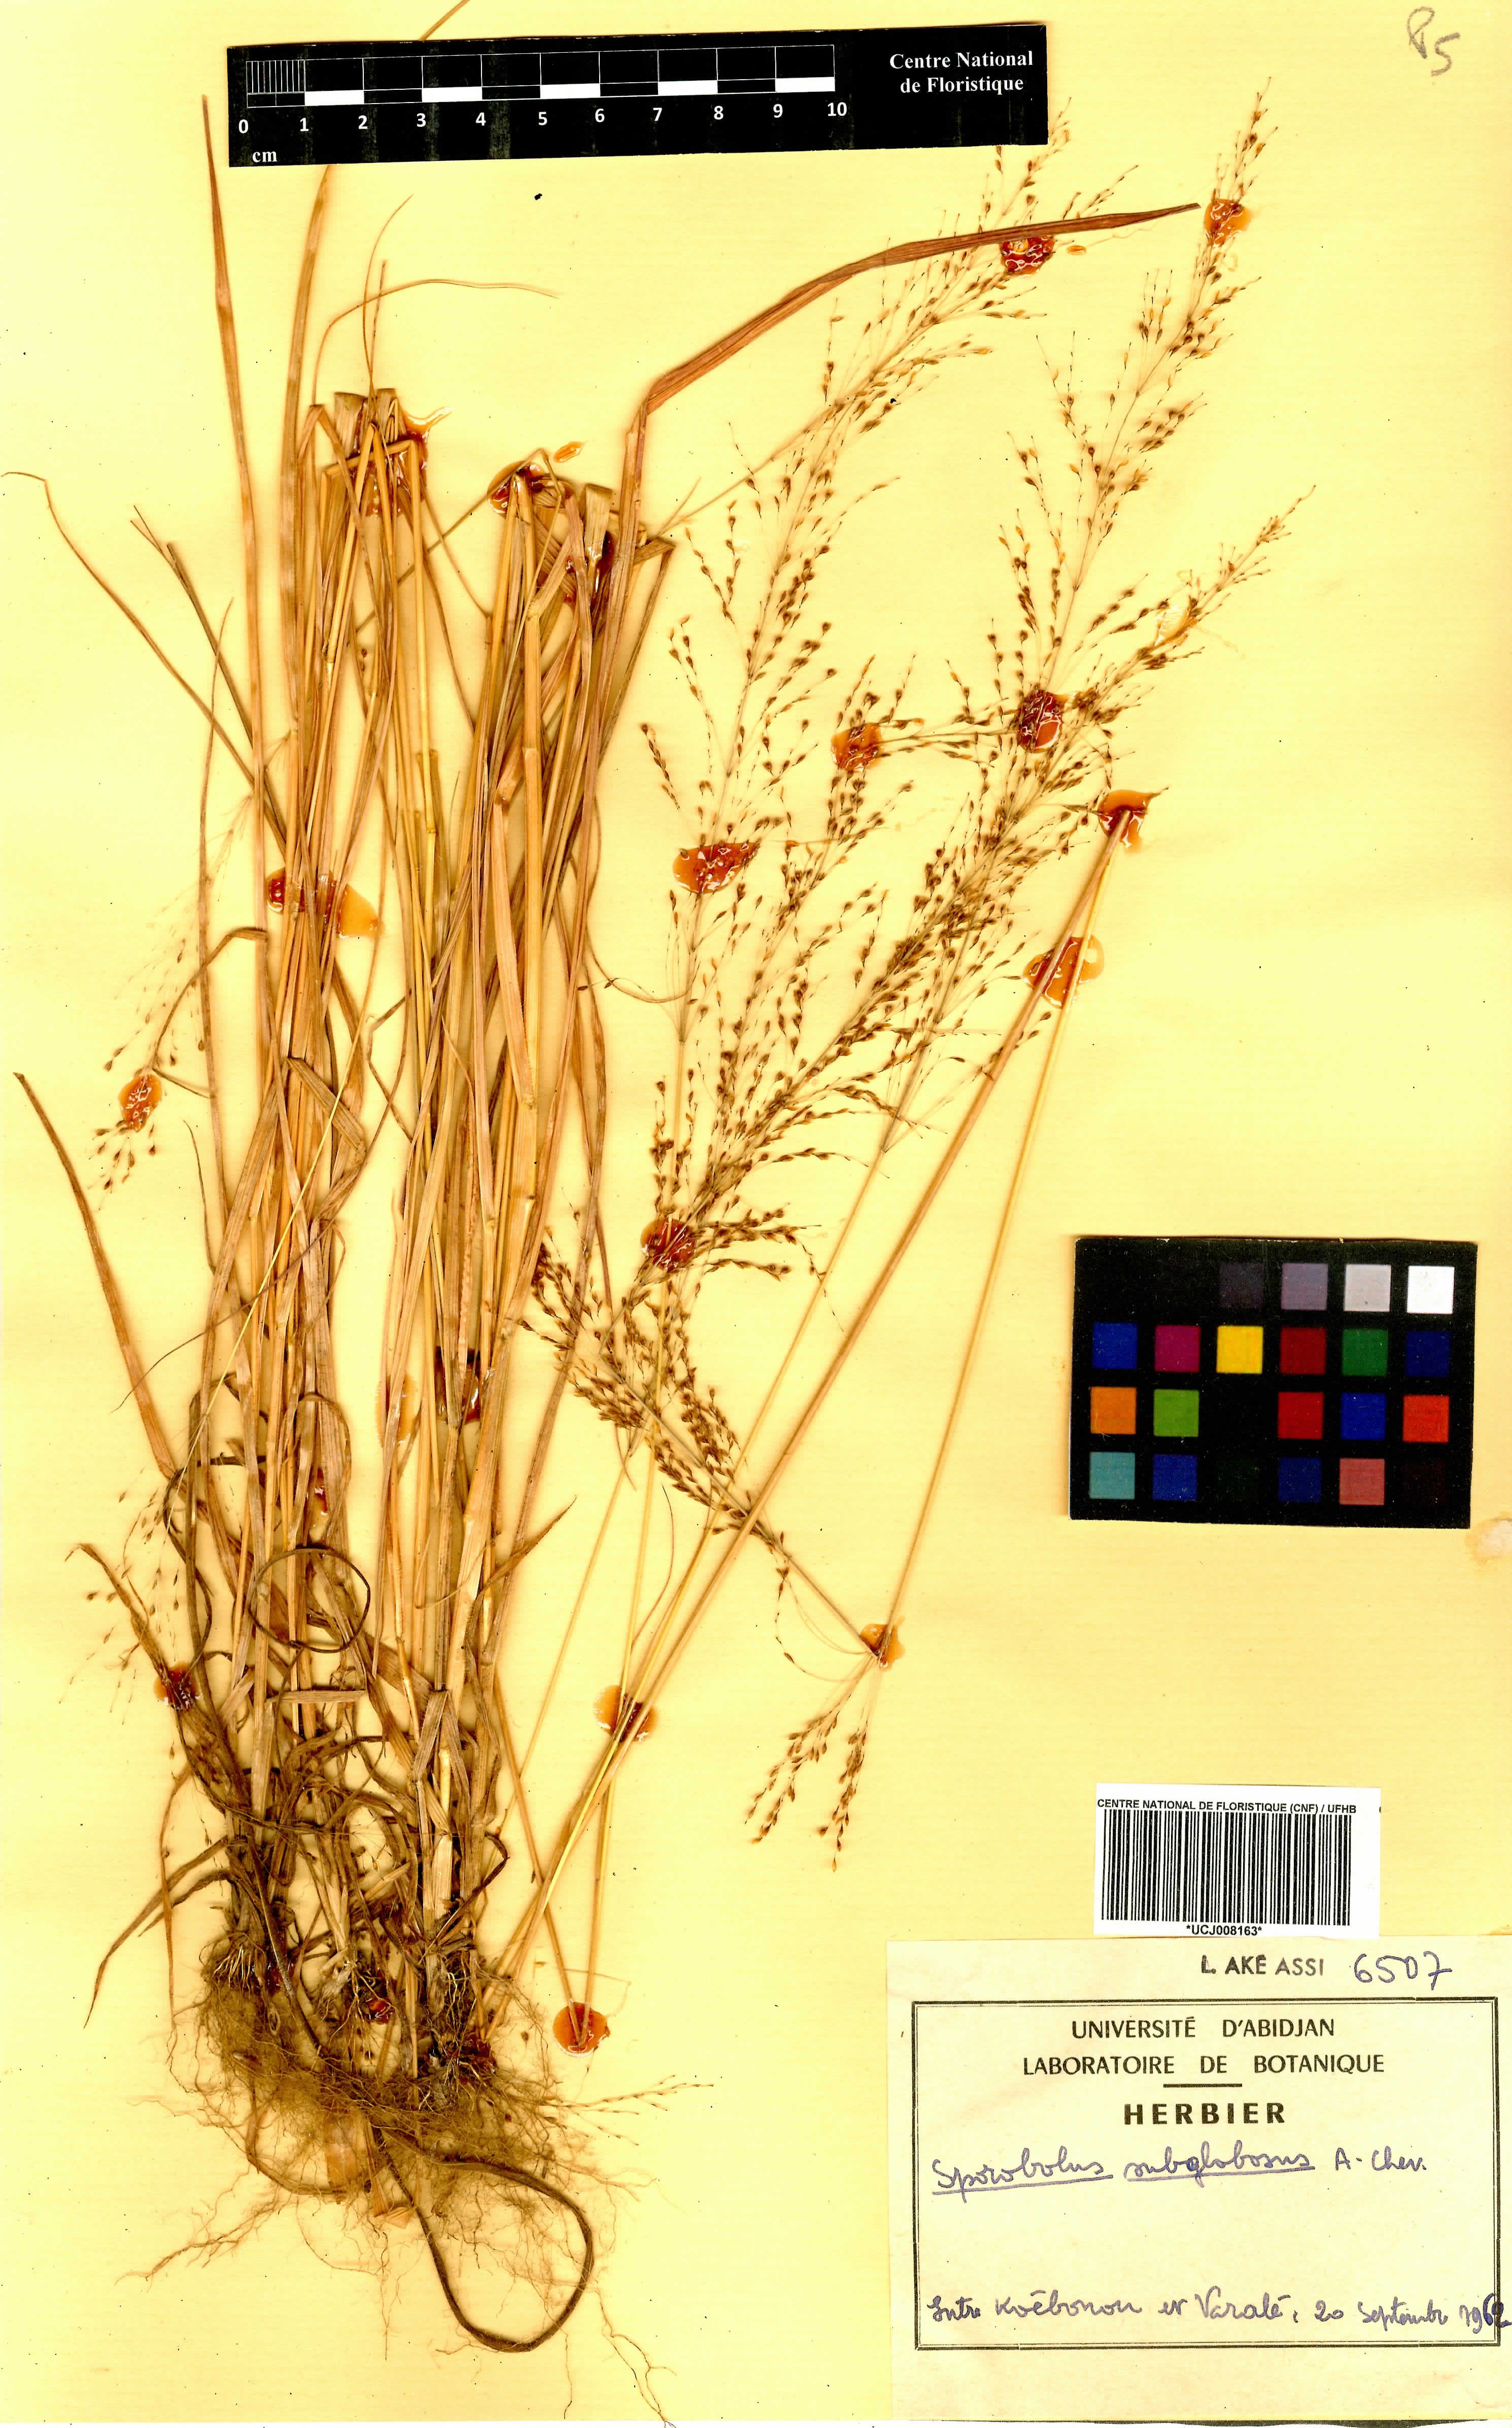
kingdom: Plantae
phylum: Tracheophyta
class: Liliopsida
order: Poales
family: Poaceae
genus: Sporobolus
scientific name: Sporobolus subglobosus
